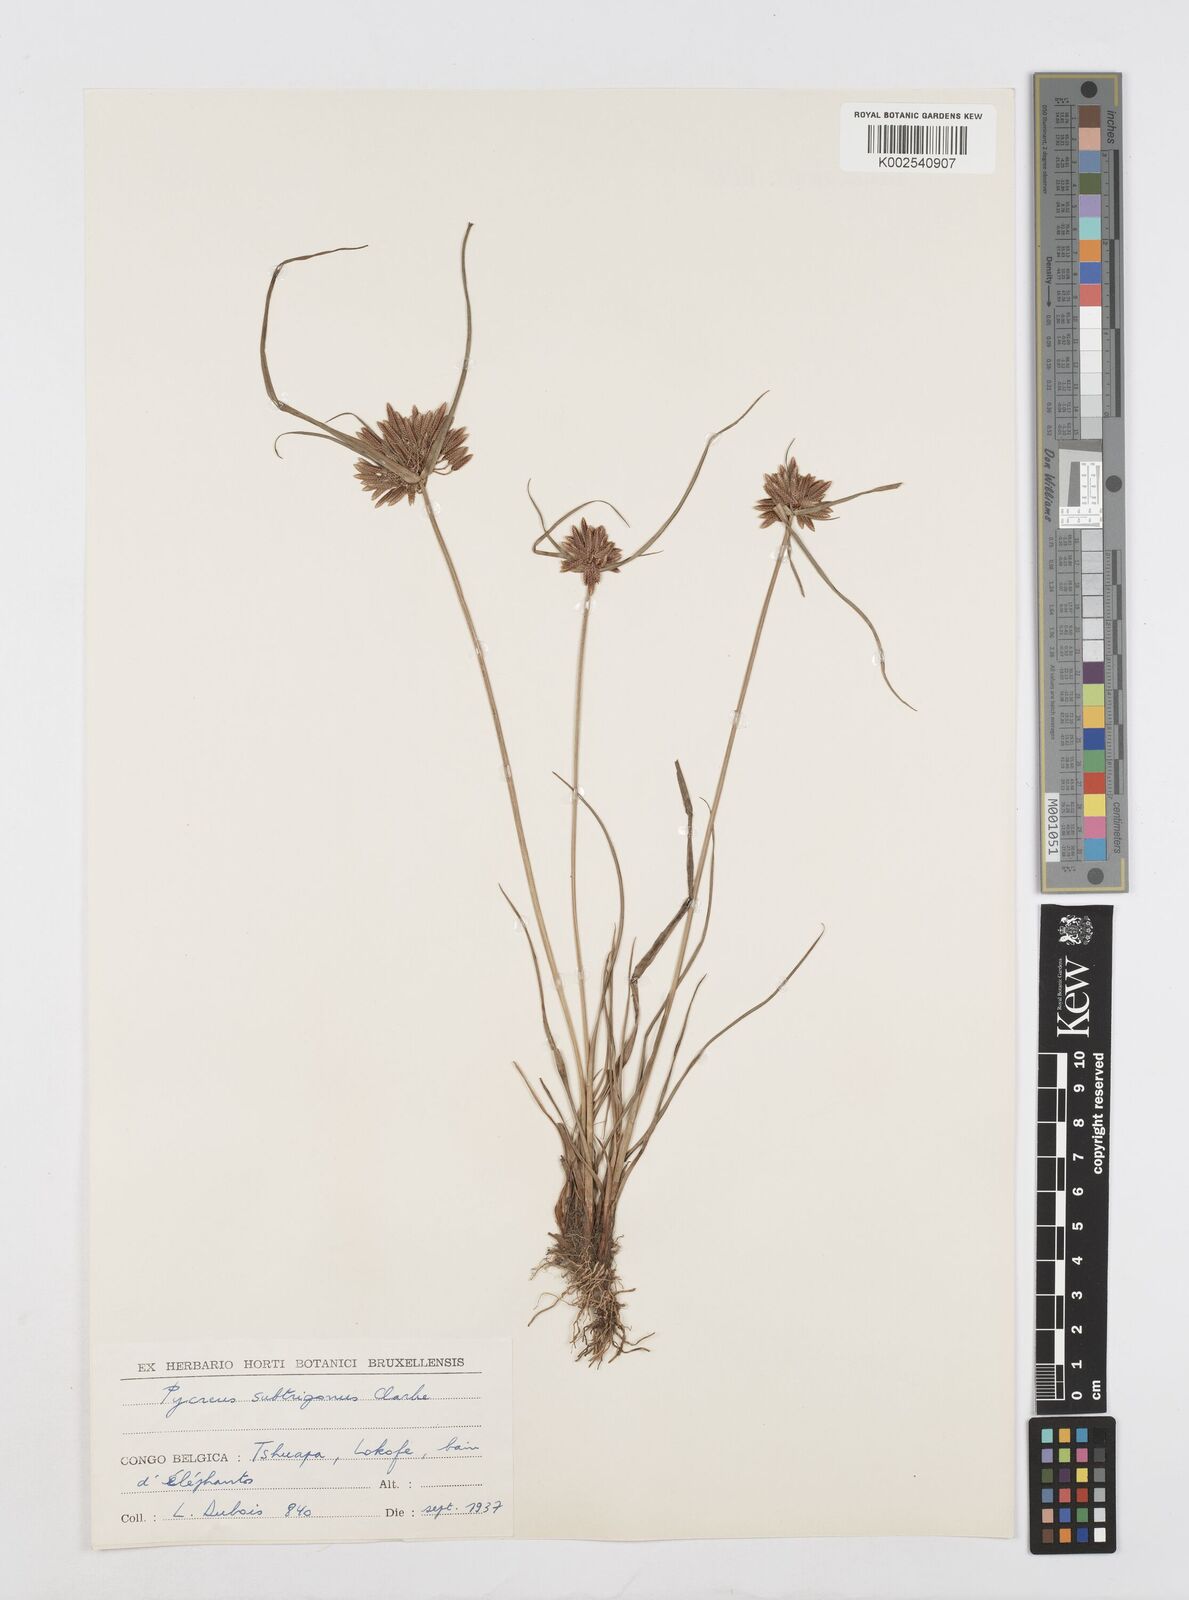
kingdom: Plantae
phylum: Tracheophyta
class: Liliopsida
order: Poales
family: Cyperaceae
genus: Cyperus
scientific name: Cyperus subtrigonus
